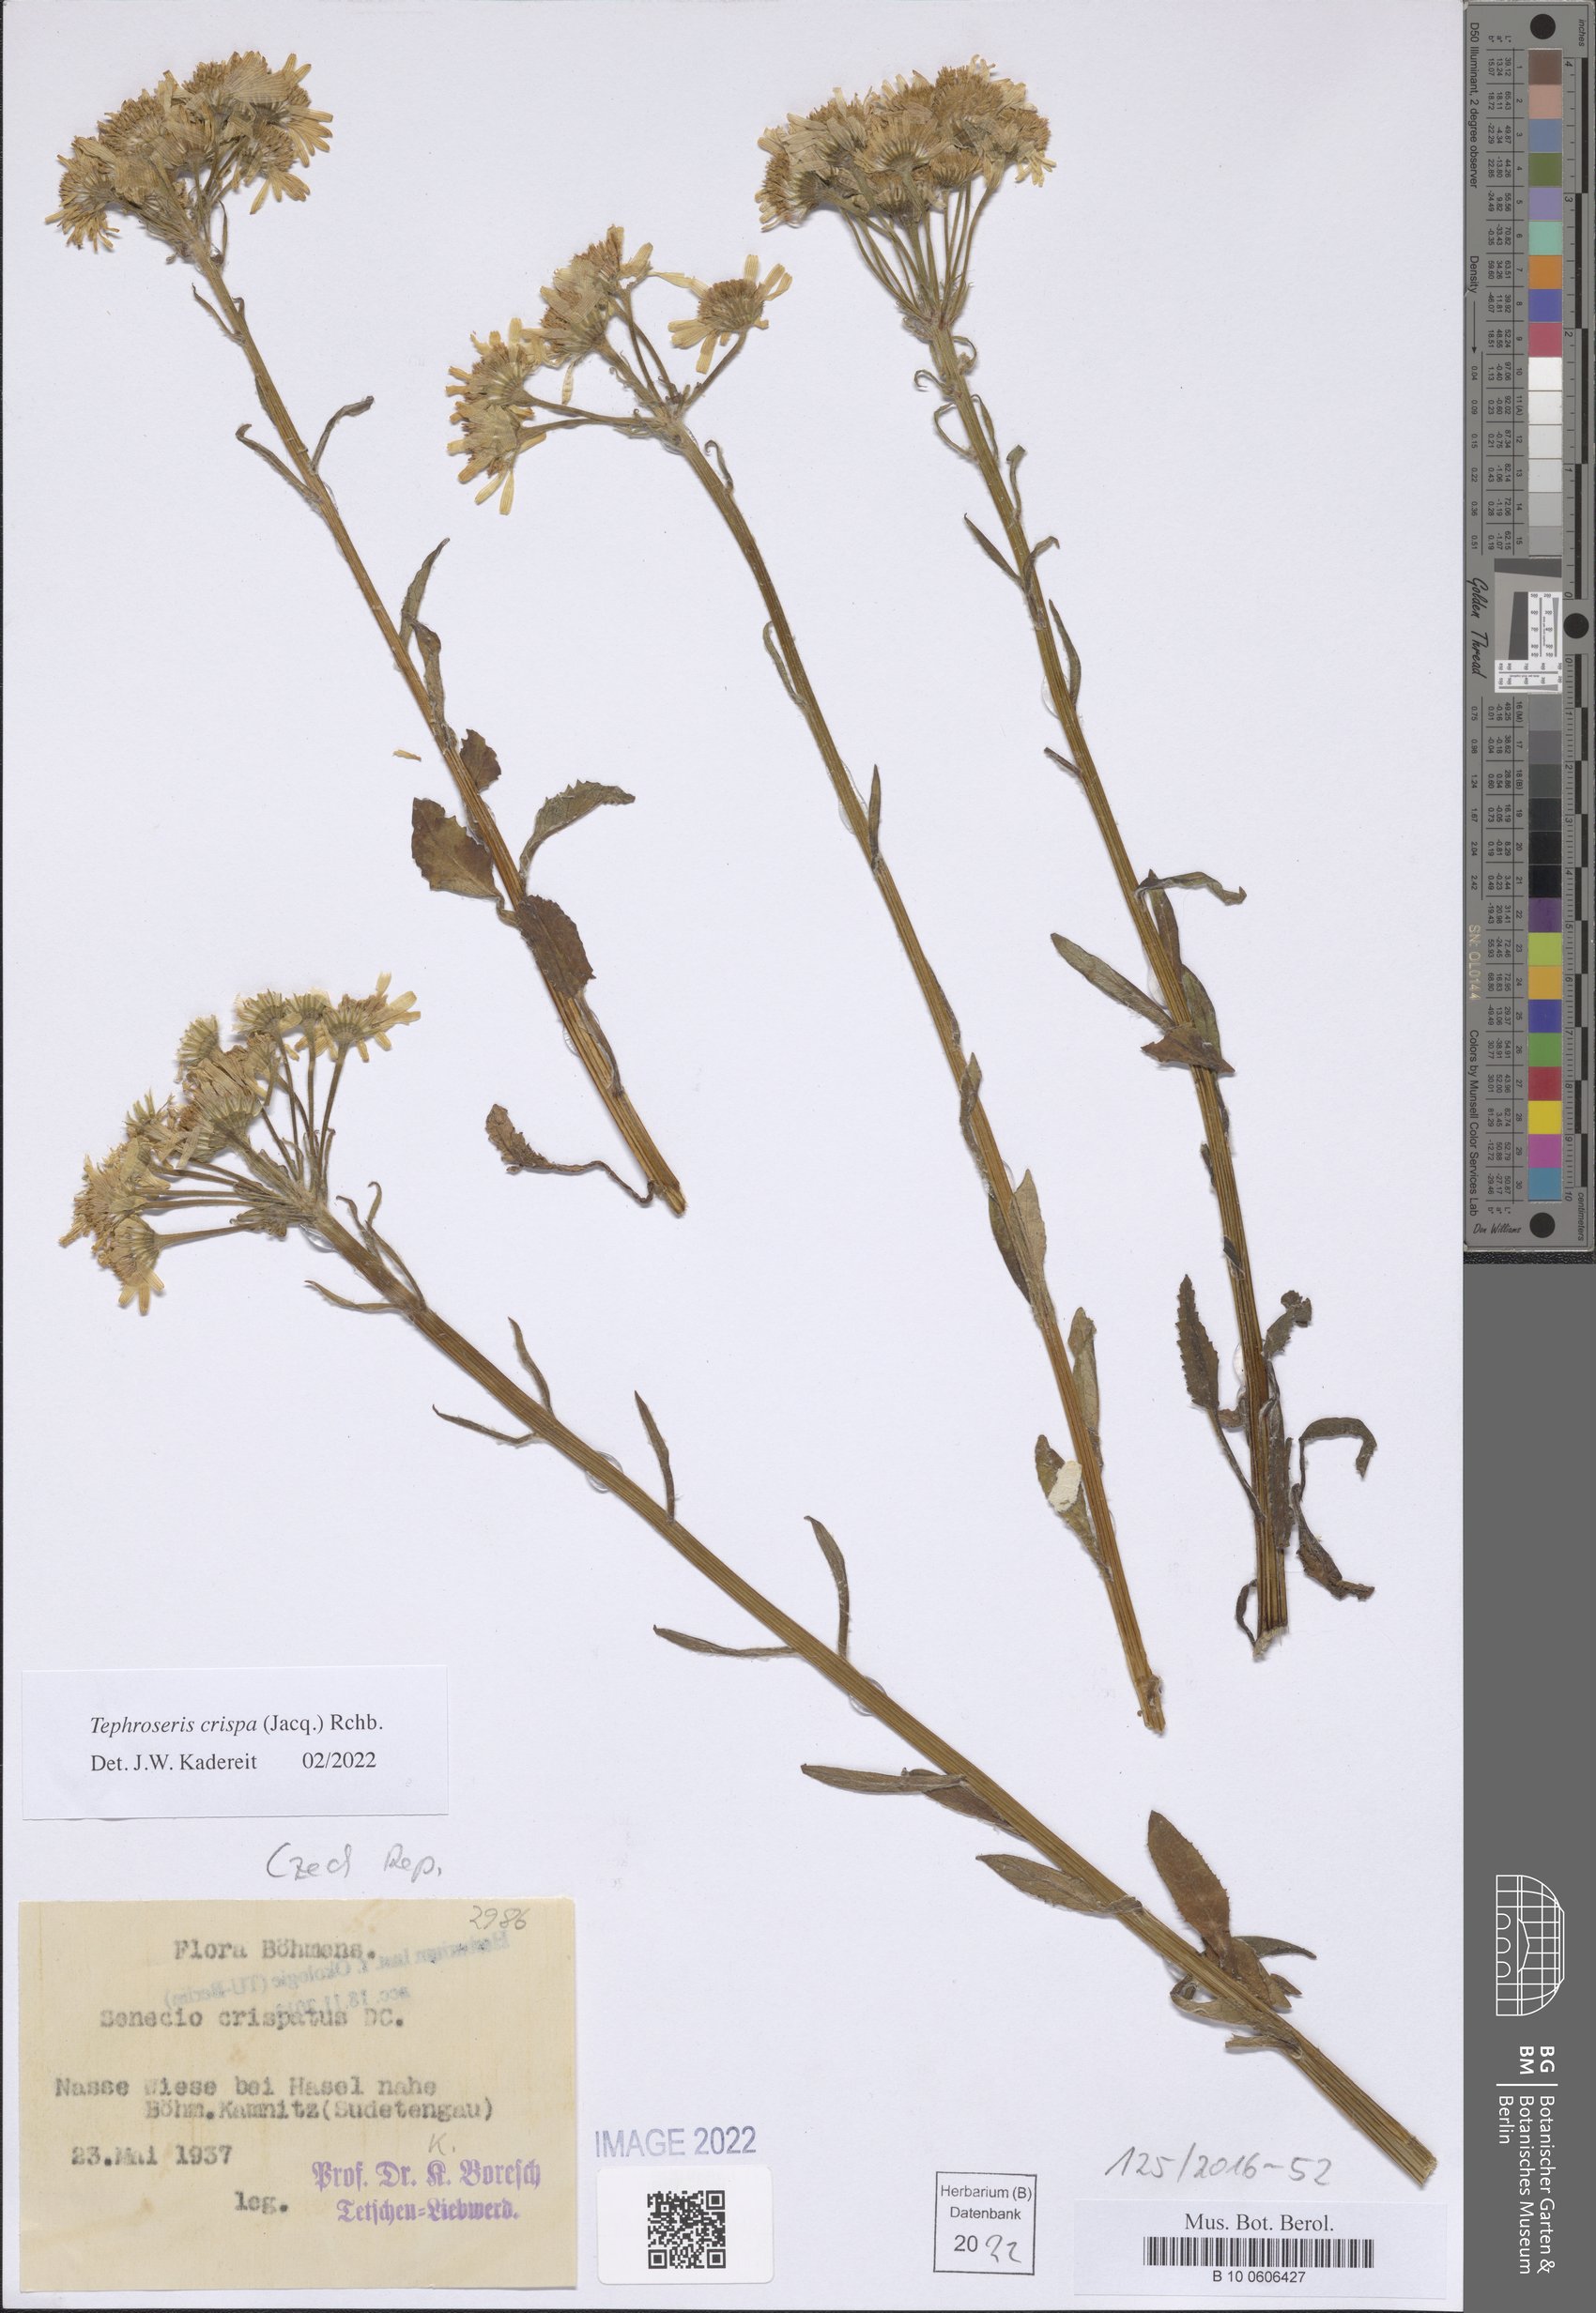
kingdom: Plantae
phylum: Tracheophyta
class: Magnoliopsida
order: Asterales
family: Asteraceae
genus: Tephroseris
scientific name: Tephroseris crispa
